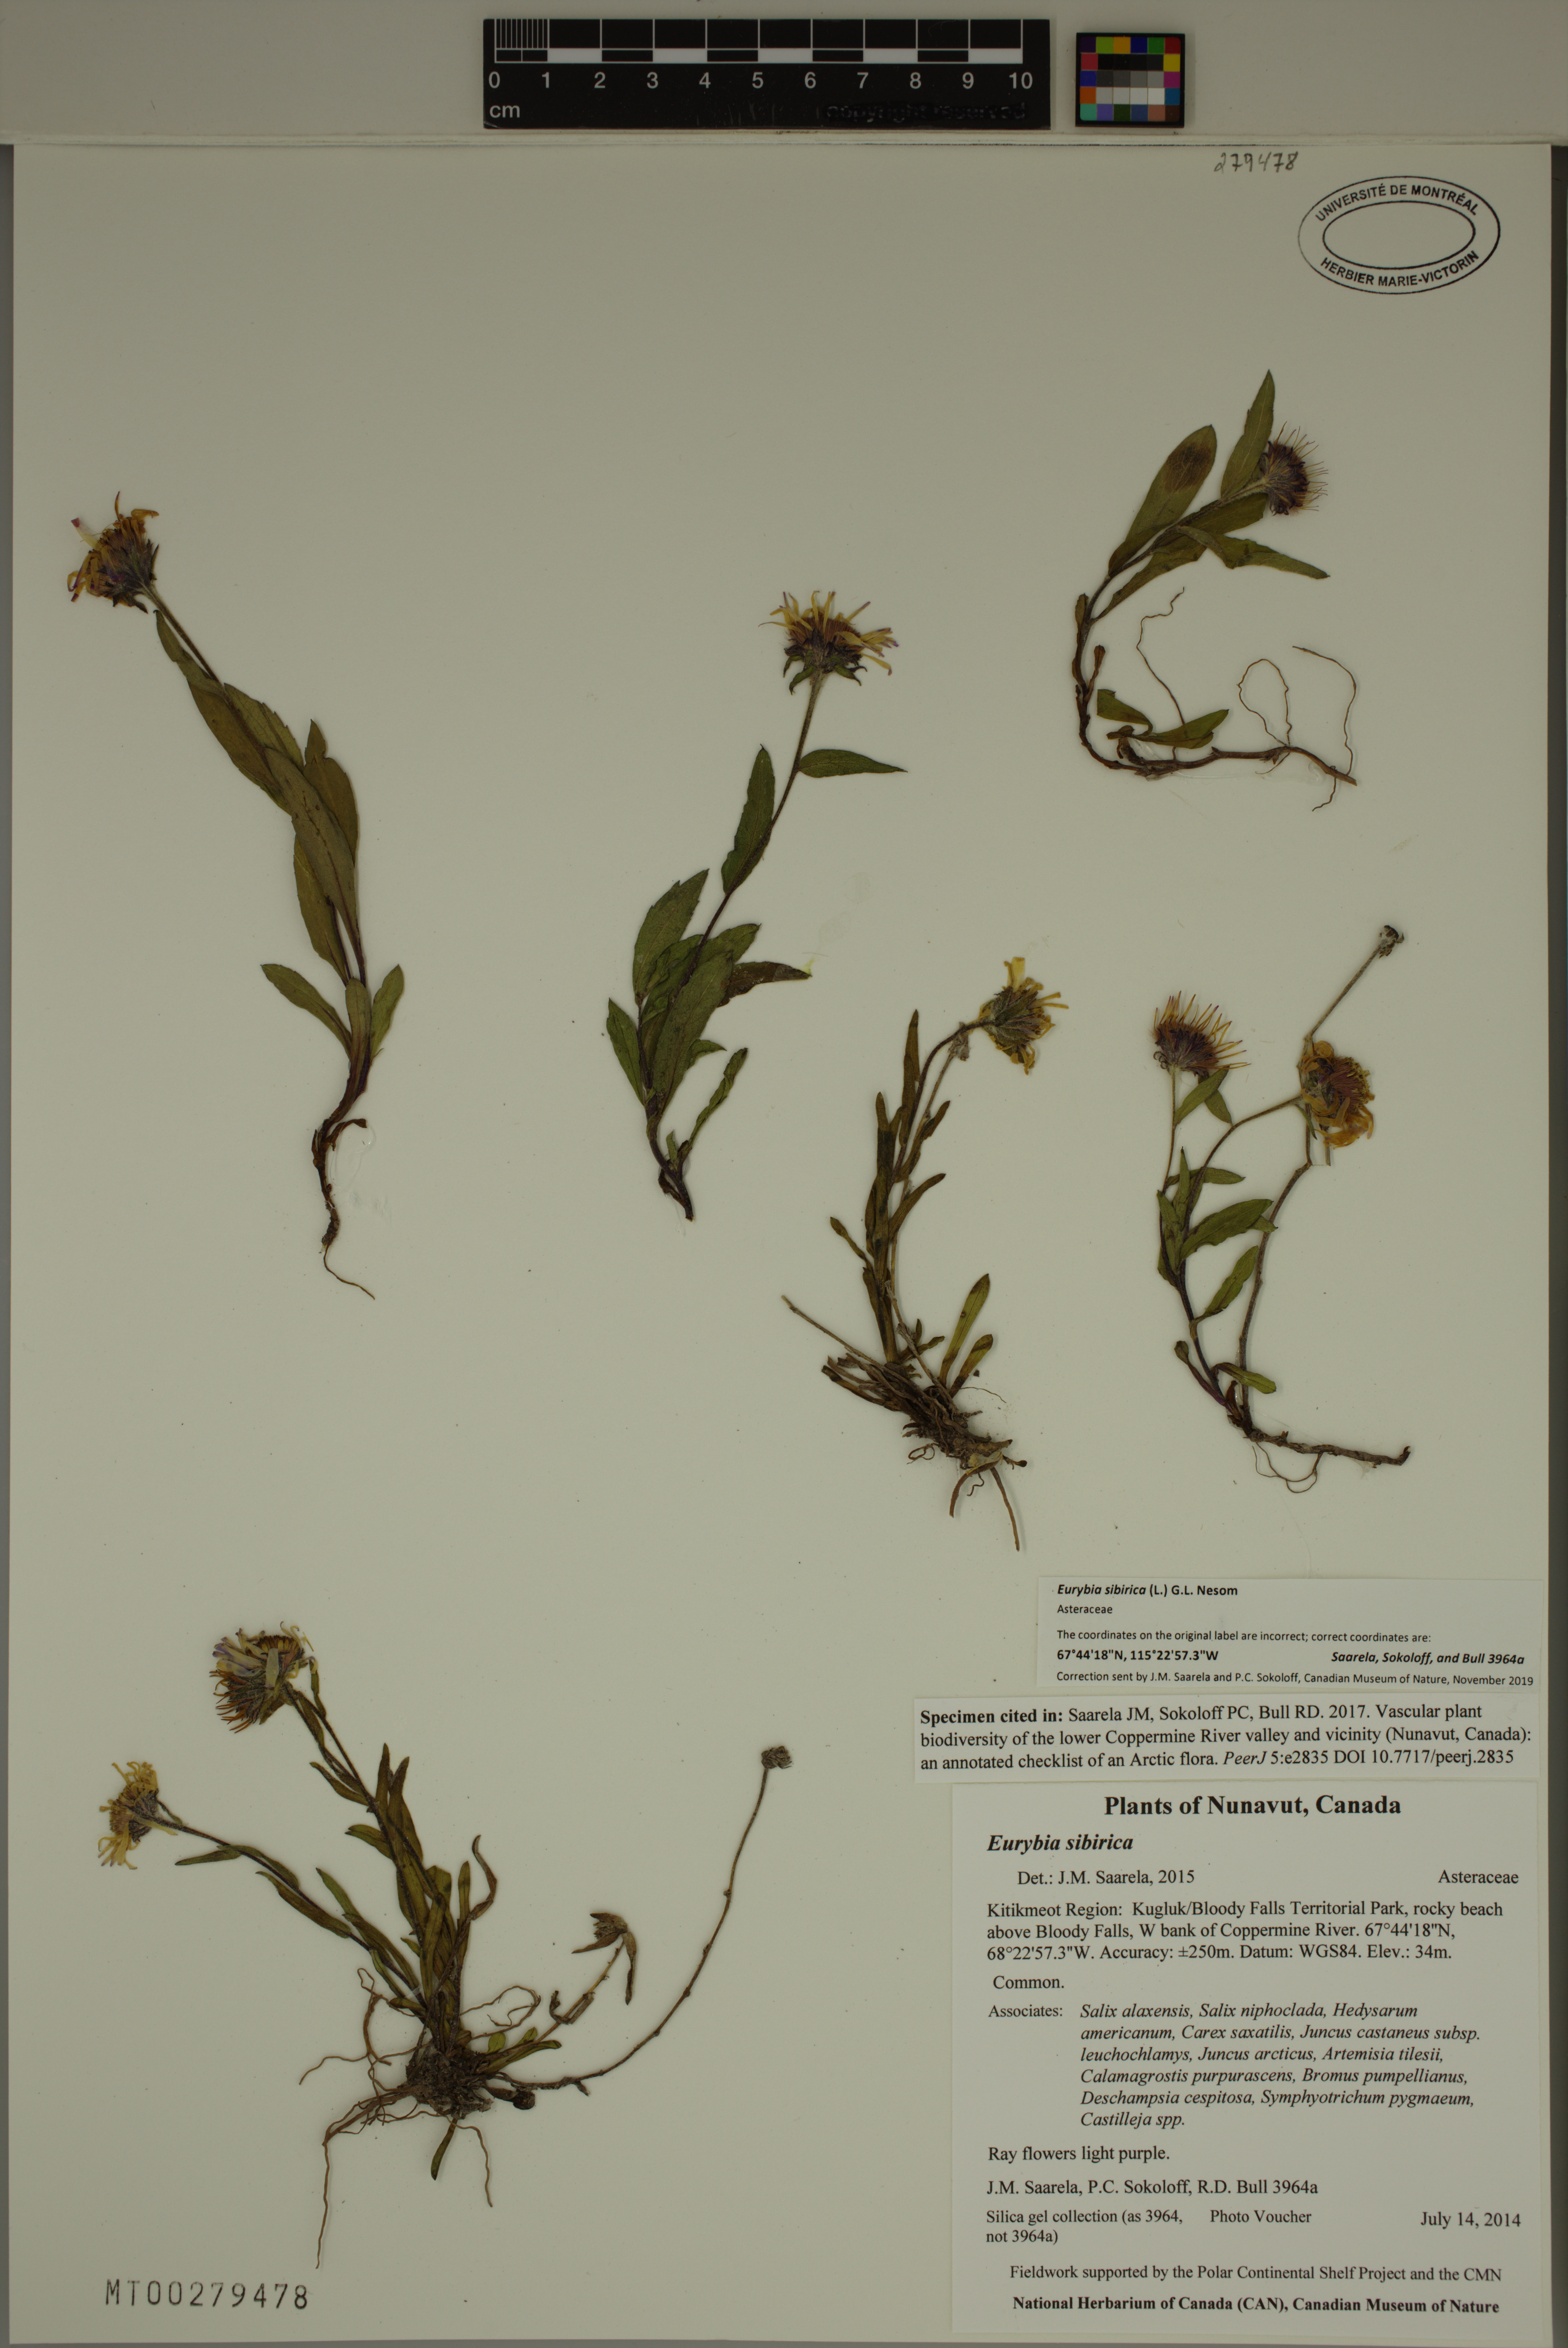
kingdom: Plantae
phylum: Tracheophyta
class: Magnoliopsida
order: Asterales
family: Asteraceae
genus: Eurybia
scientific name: Eurybia sibirica
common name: Arctic aster
